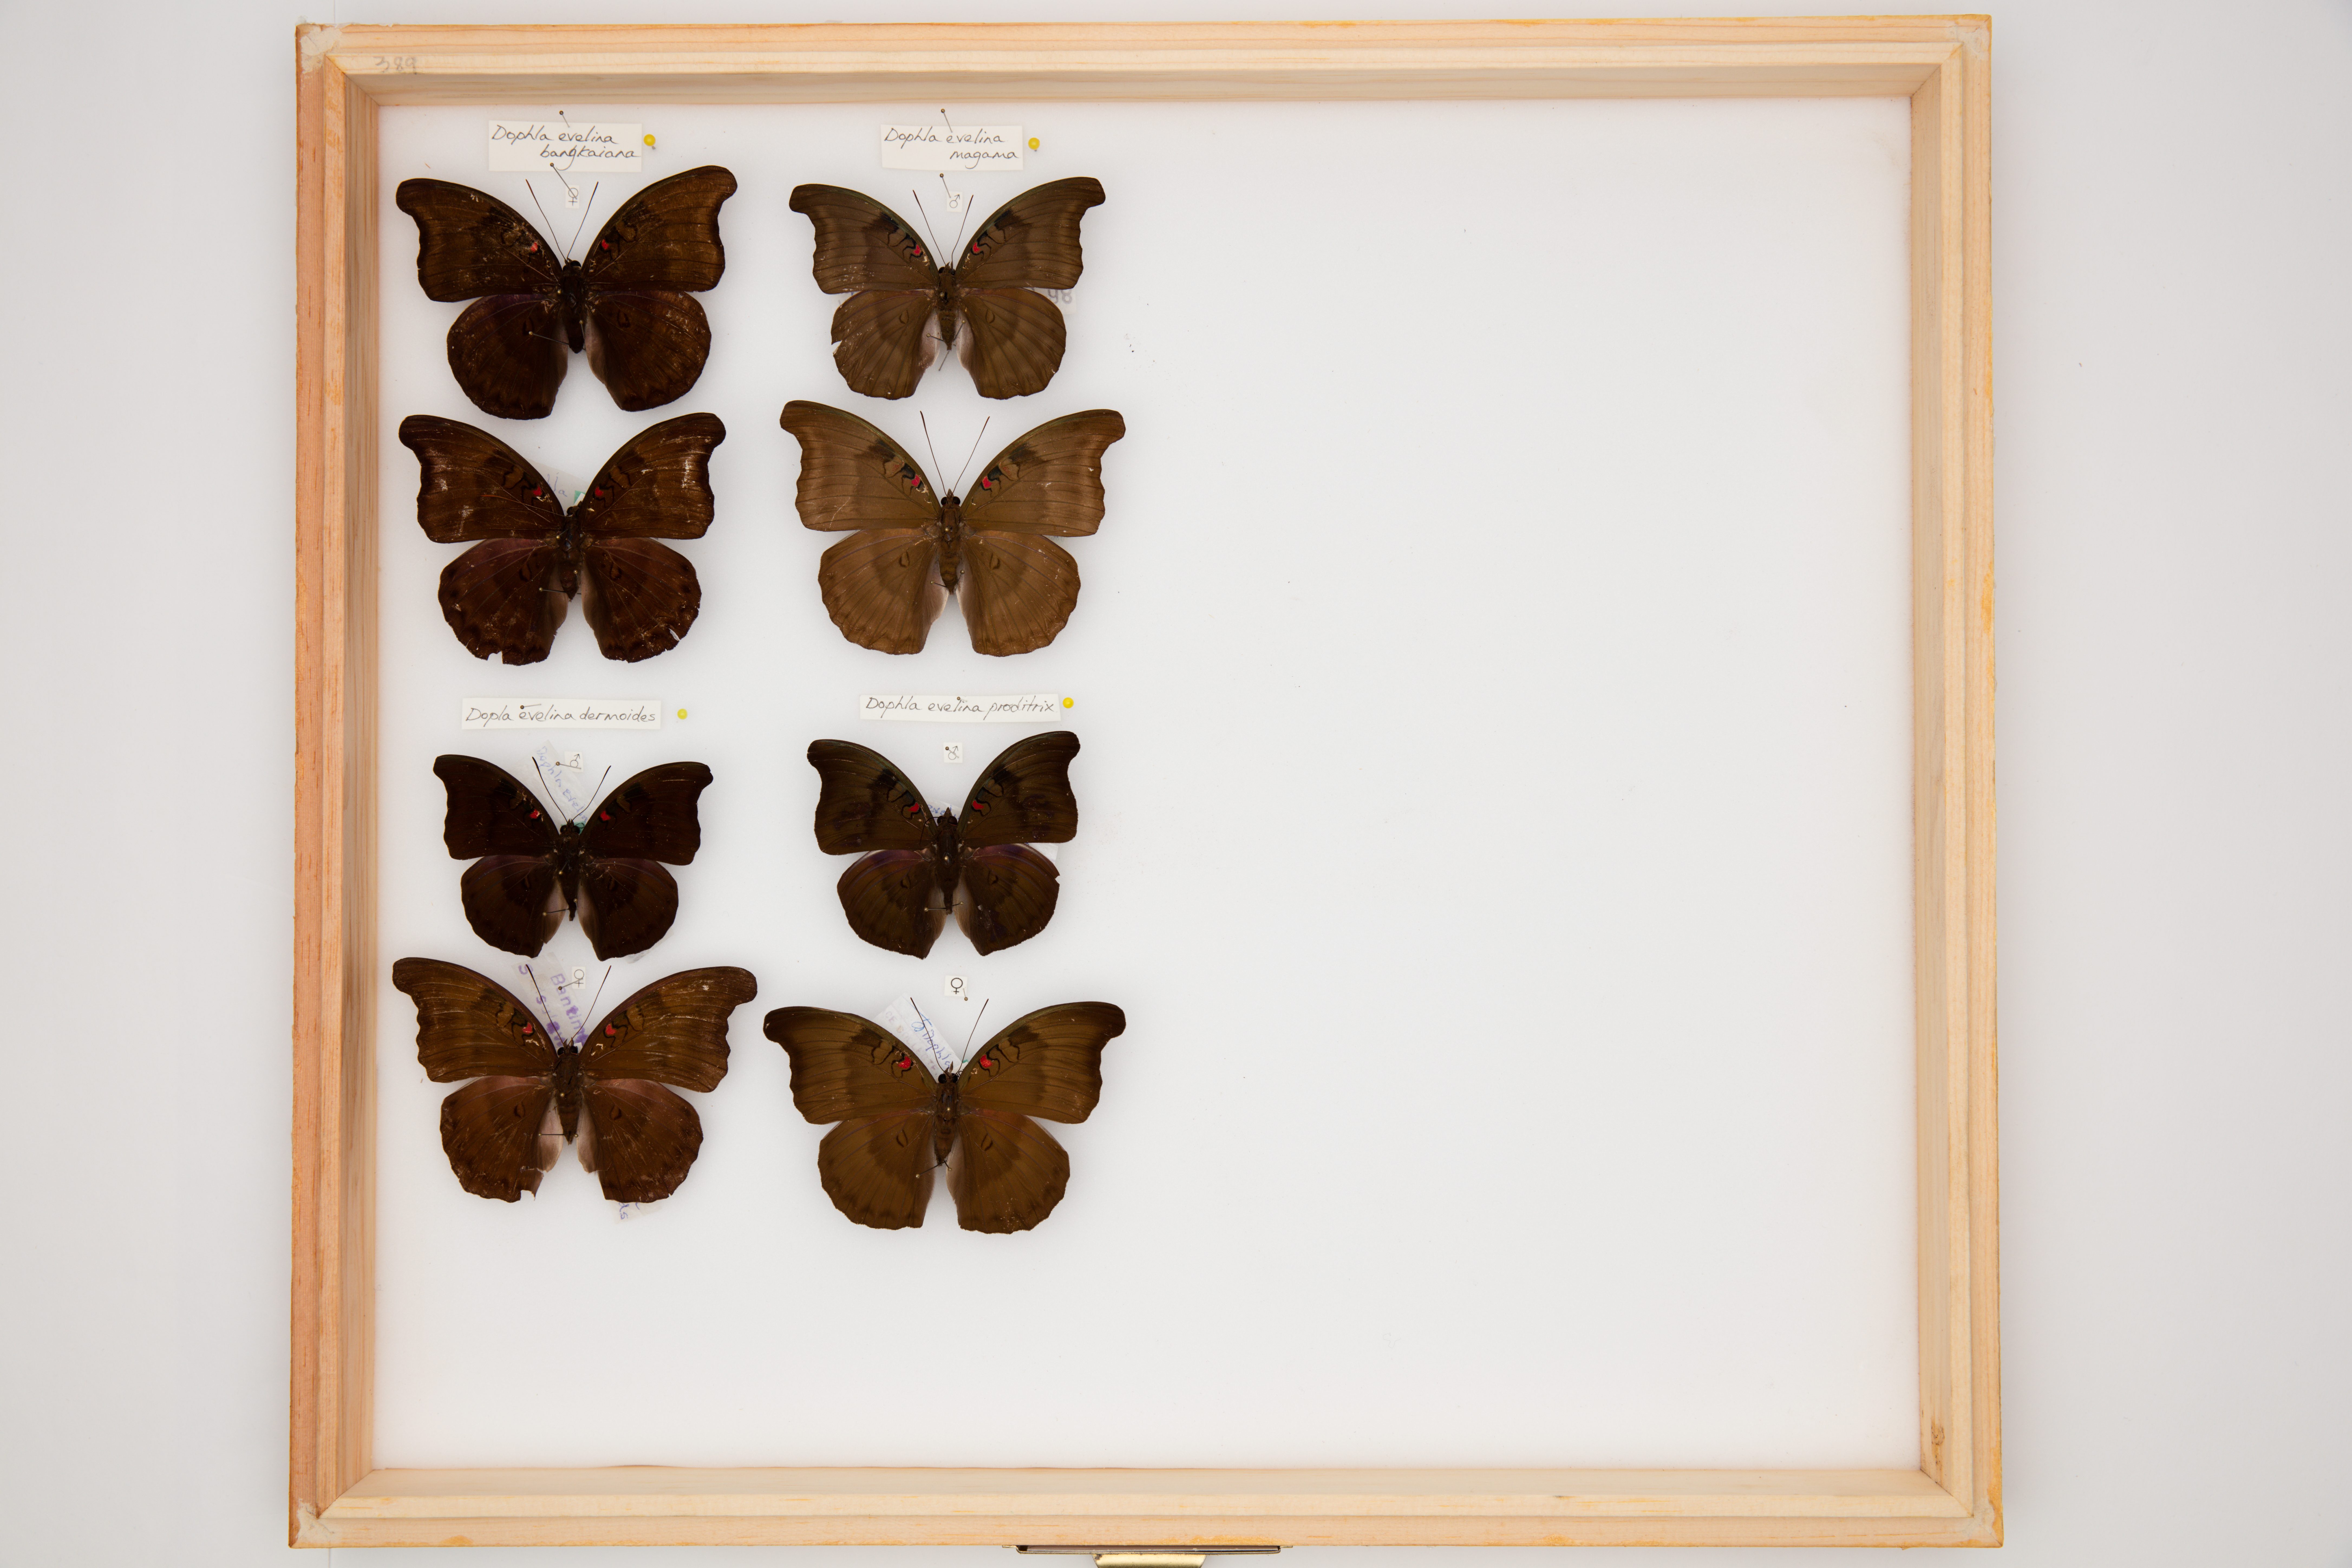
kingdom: Animalia
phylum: Arthropoda
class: Insecta
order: Lepidoptera
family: Nymphalidae
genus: Euthalia
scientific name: Euthalia Dophla evelina
